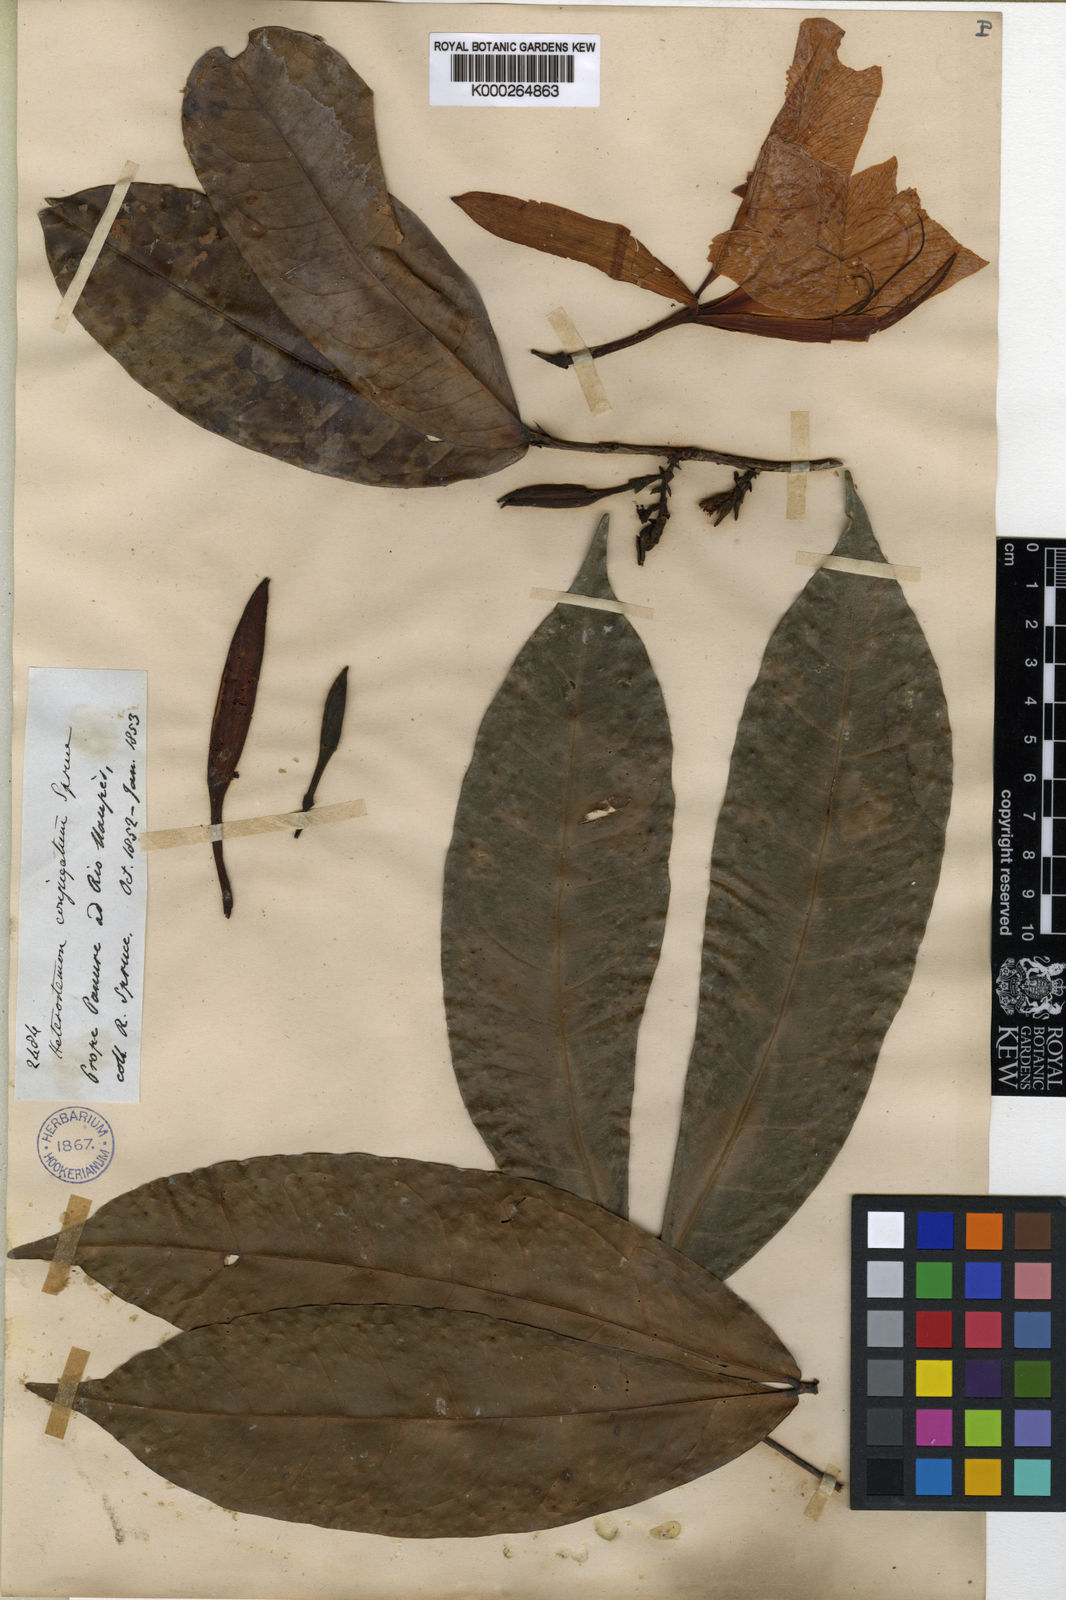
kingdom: Plantae
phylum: Tracheophyta
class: Magnoliopsida
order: Fabales
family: Fabaceae
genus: Heterostemon
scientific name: Heterostemon conjugatus
